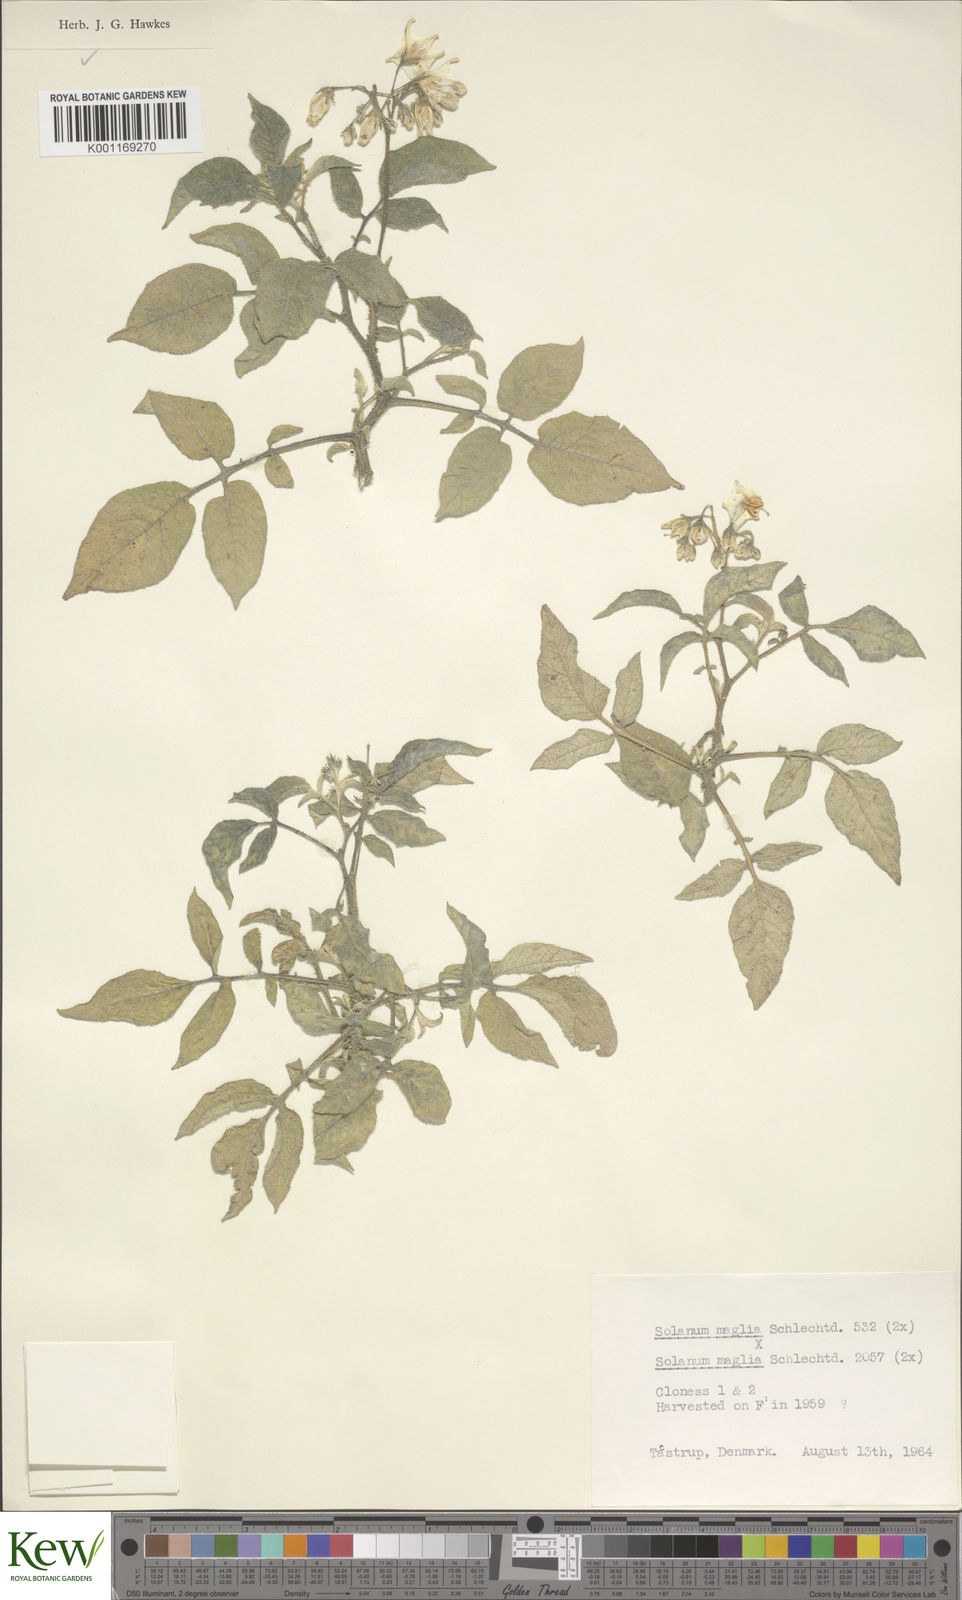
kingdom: Plantae
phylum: Tracheophyta
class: Magnoliopsida
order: Solanales
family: Solanaceae
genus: Solanum
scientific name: Solanum maglia
